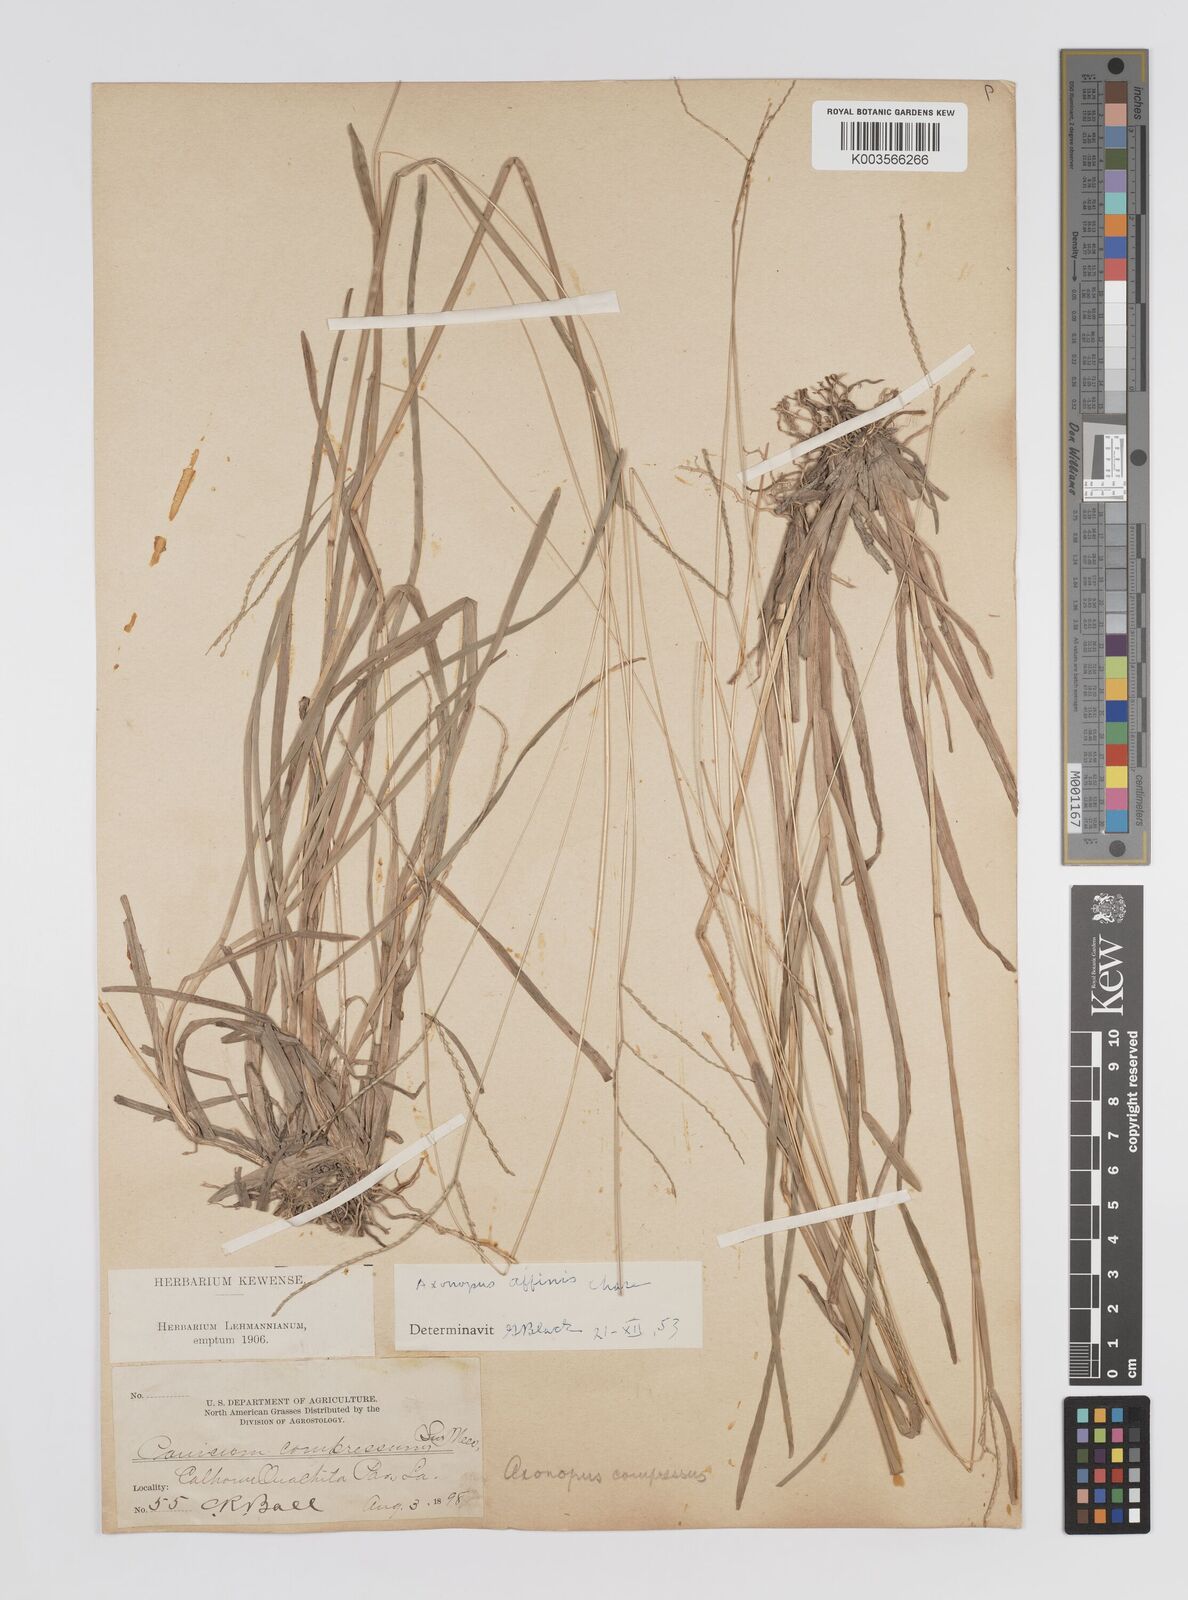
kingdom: Plantae
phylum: Tracheophyta
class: Liliopsida
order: Poales
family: Poaceae
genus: Axonopus
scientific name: Axonopus fissifolius
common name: Common carpetgrass
